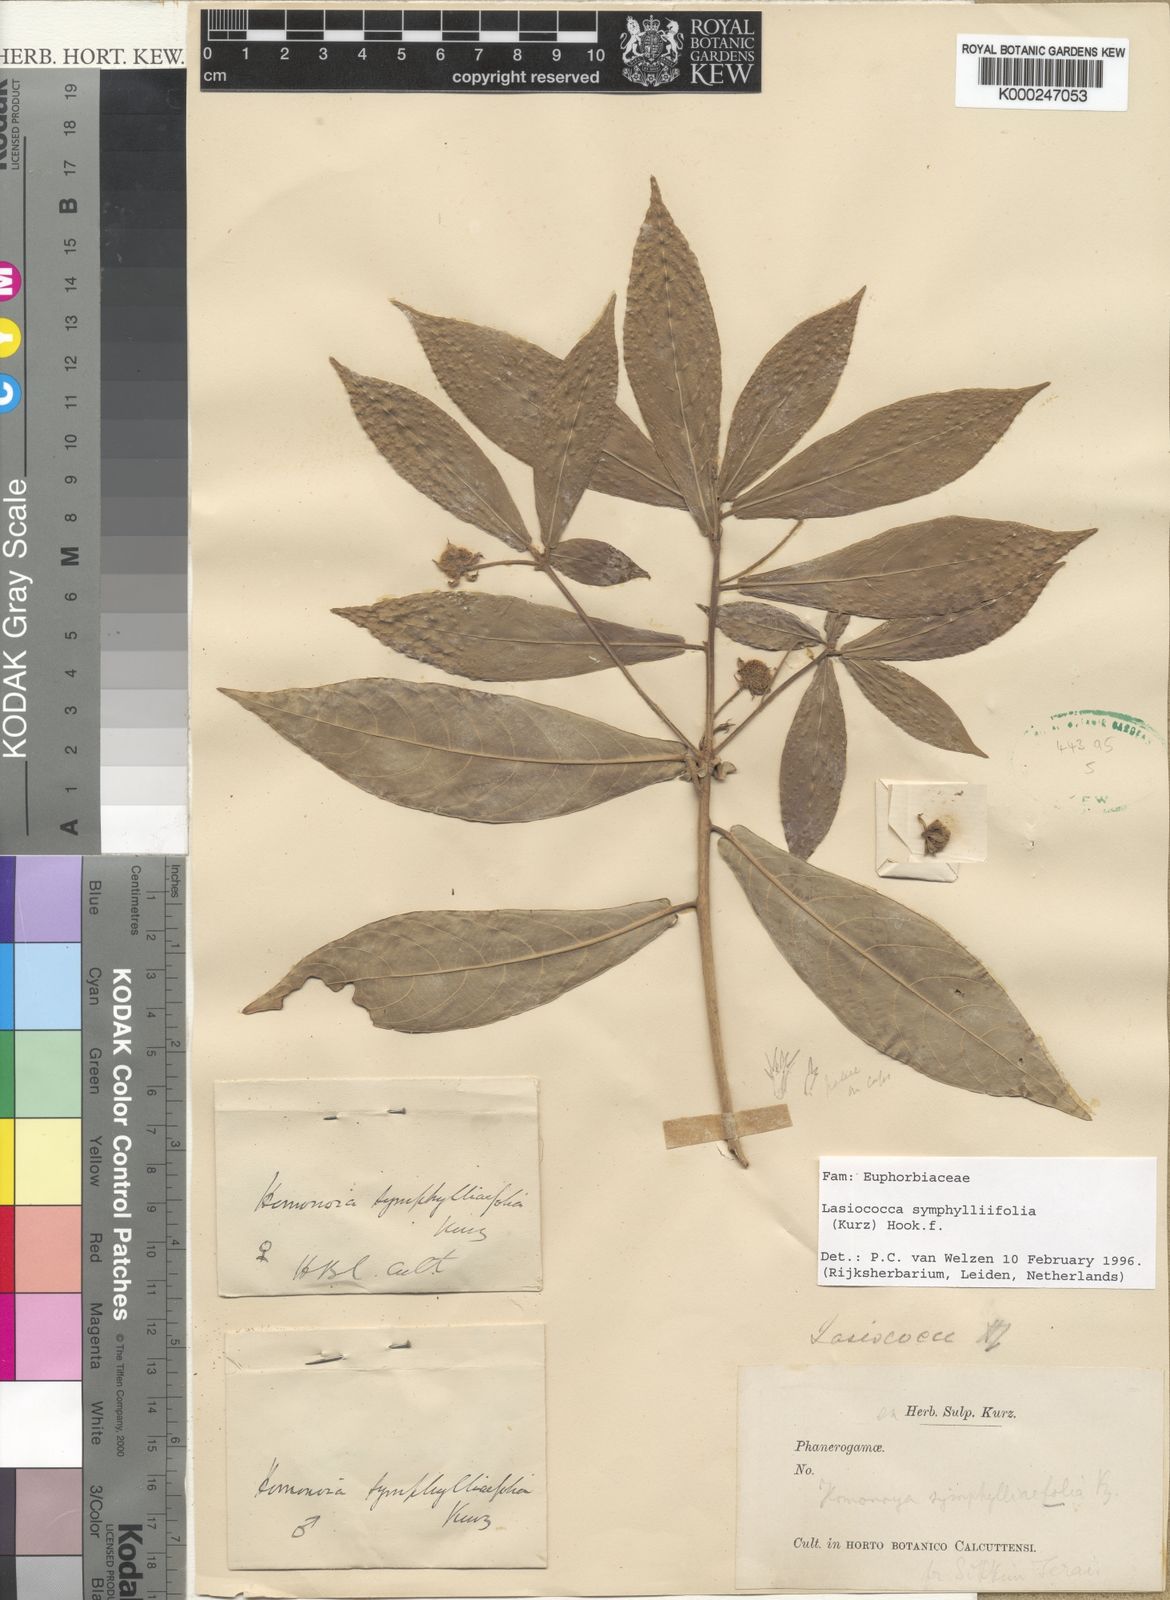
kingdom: Plantae
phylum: Tracheophyta
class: Magnoliopsida
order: Malpighiales
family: Euphorbiaceae
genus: Lasiococca
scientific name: Lasiococca symphyllifolia
